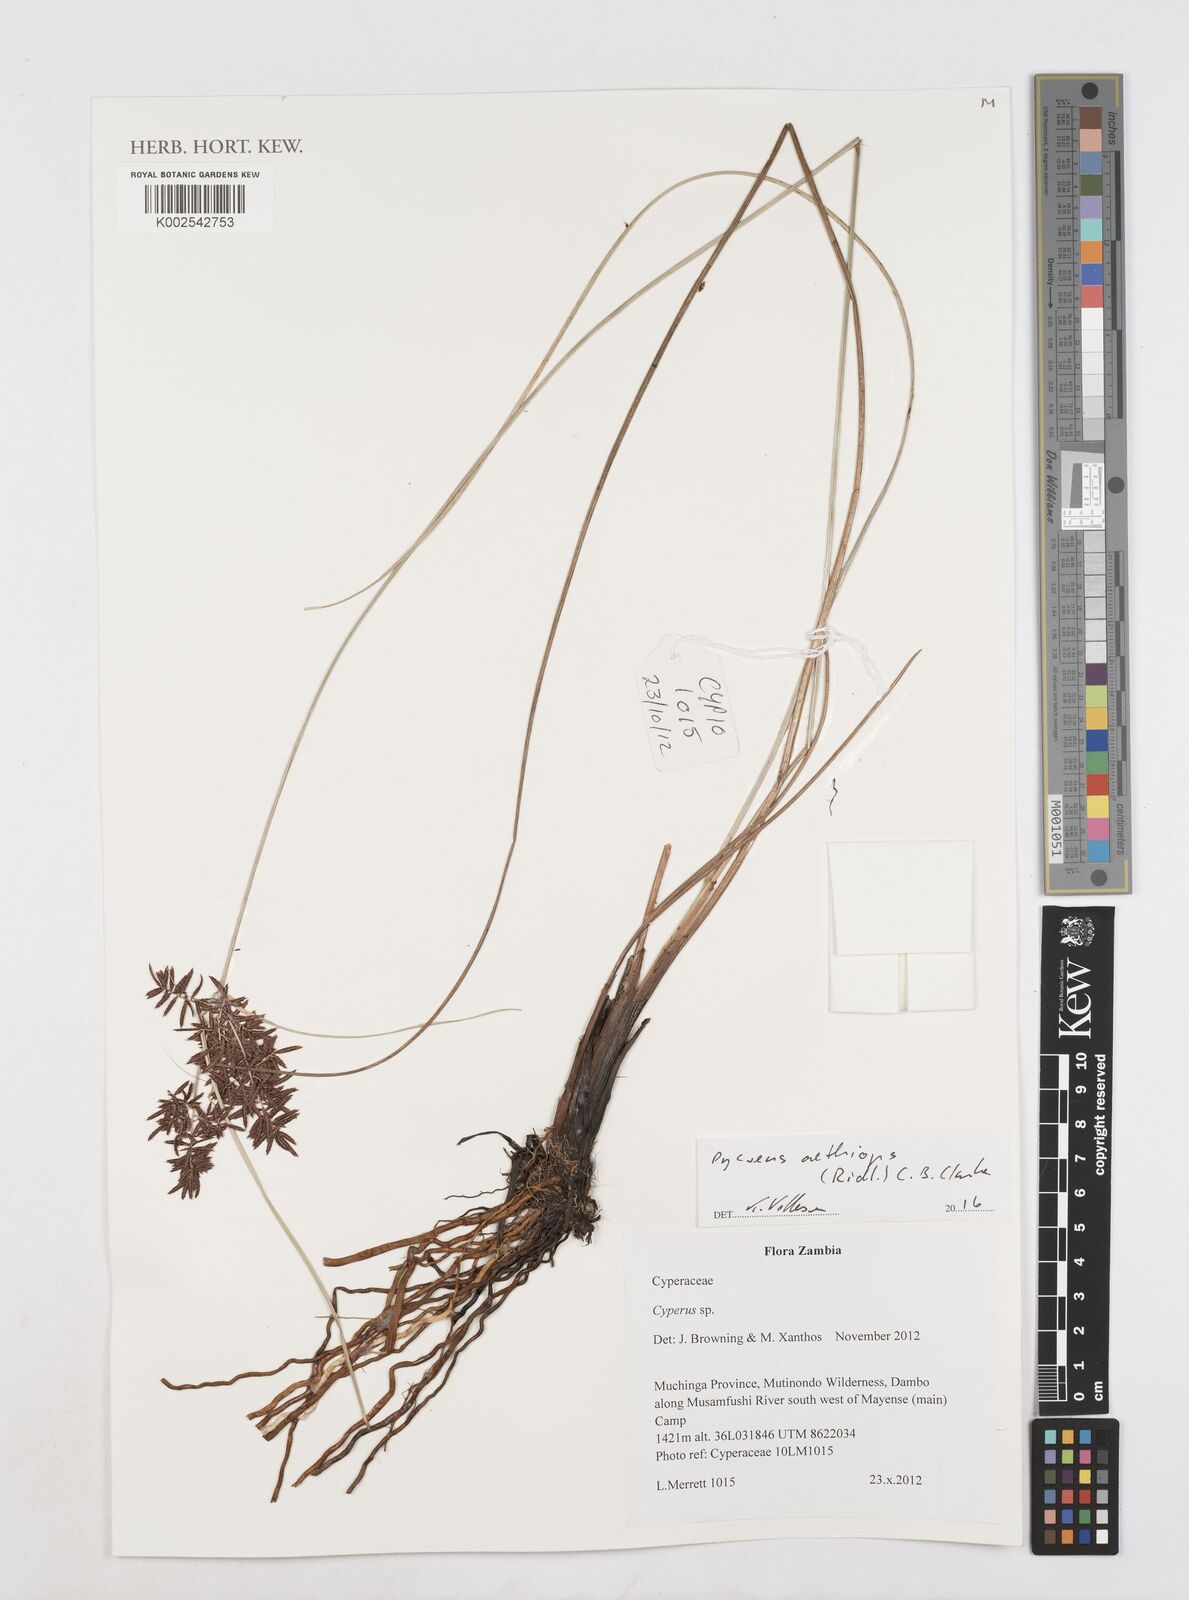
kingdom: Plantae
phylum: Tracheophyta
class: Liliopsida
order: Poales
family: Cyperaceae
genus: Cyperus
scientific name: Cyperus aethiops
